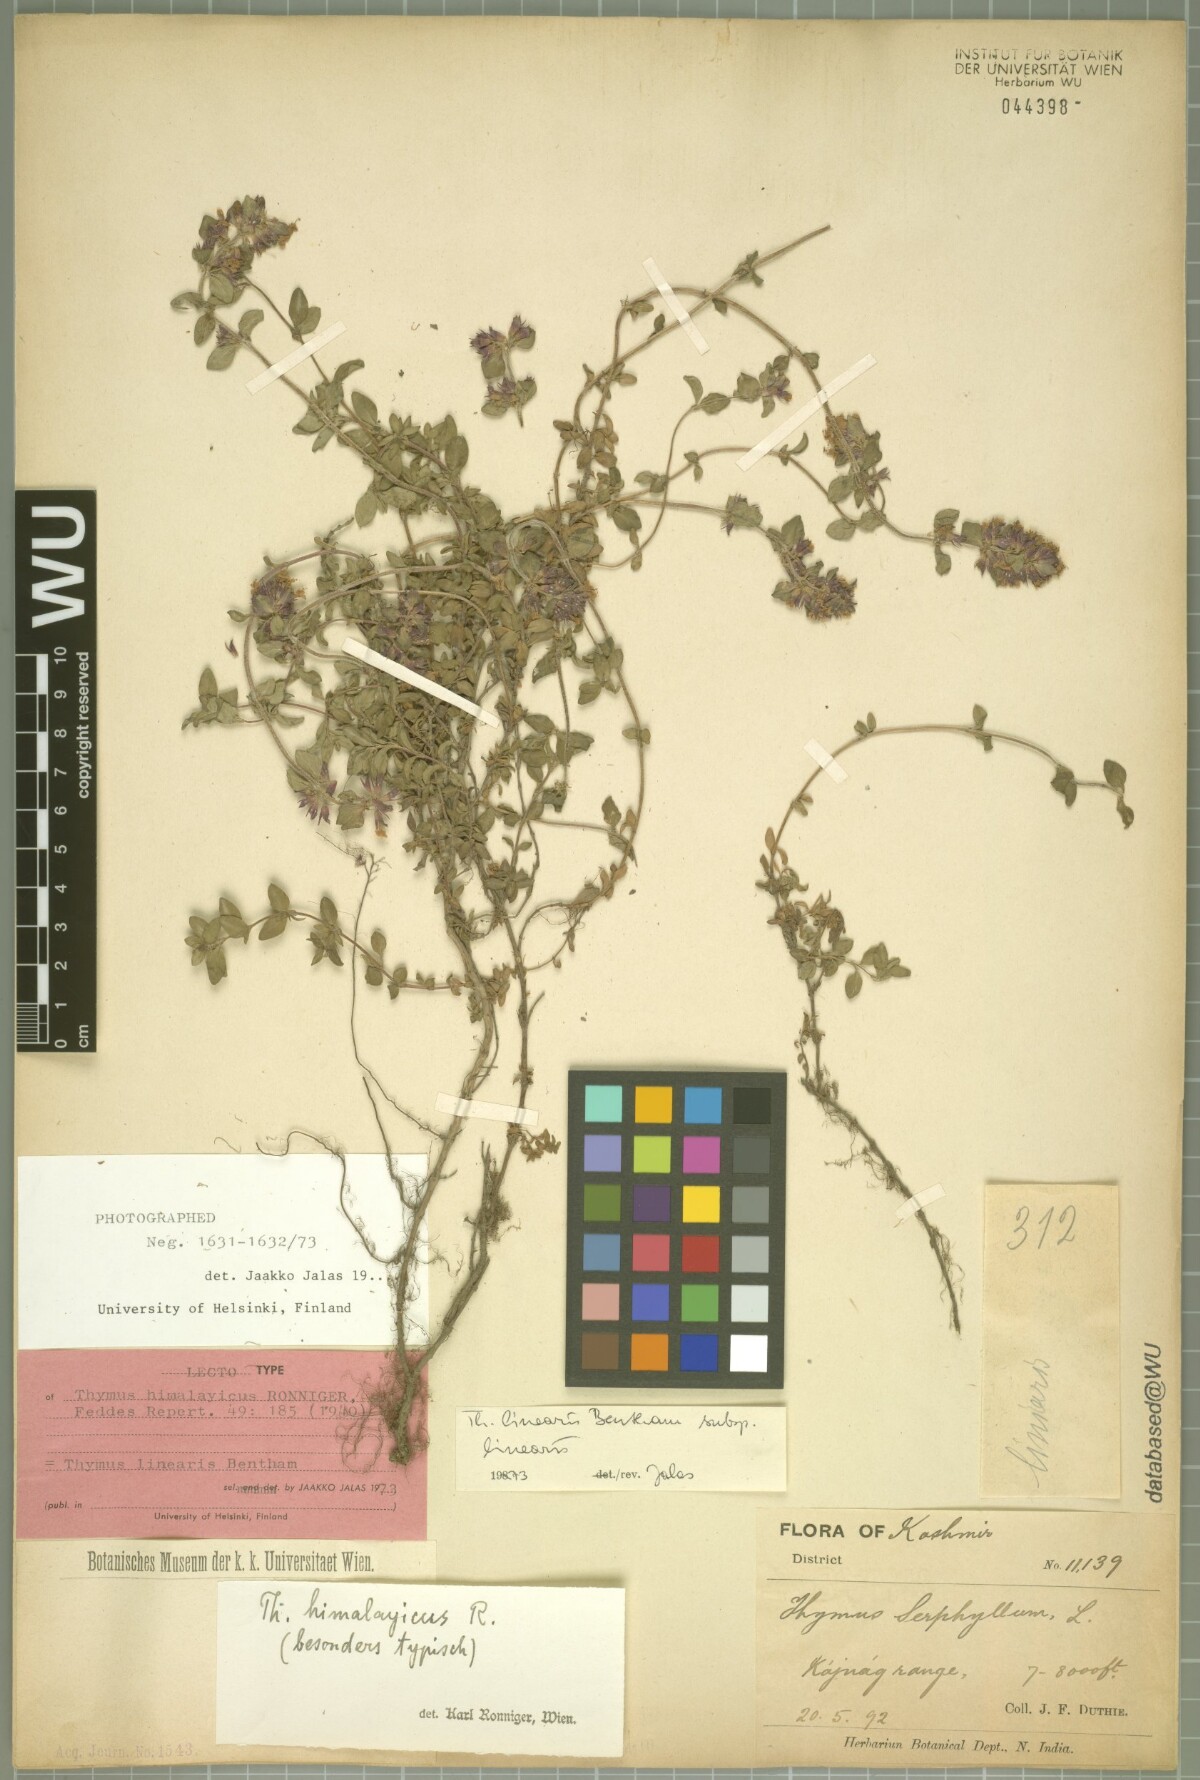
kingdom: Plantae
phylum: Tracheophyta
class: Magnoliopsida
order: Lamiales
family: Lamiaceae
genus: Thymus
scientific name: Thymus linearis
